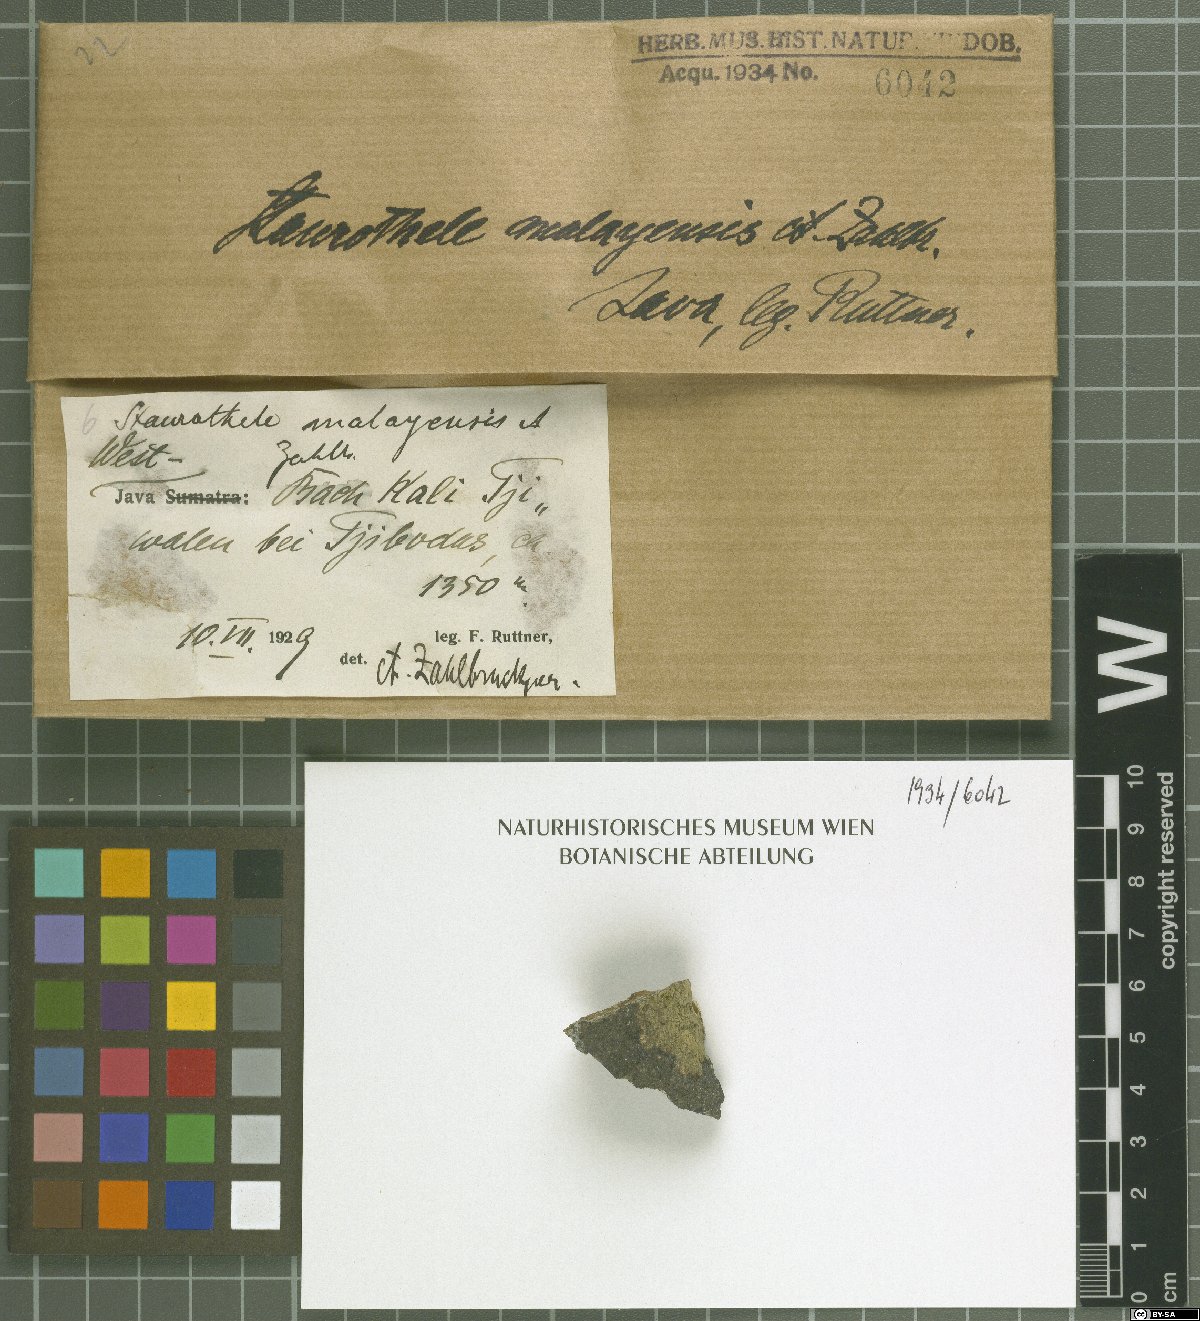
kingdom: Fungi
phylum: Ascomycota
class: Eurotiomycetes
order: Verrucariales
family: Verrucariaceae
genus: Willeya
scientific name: Willeya malayensis
